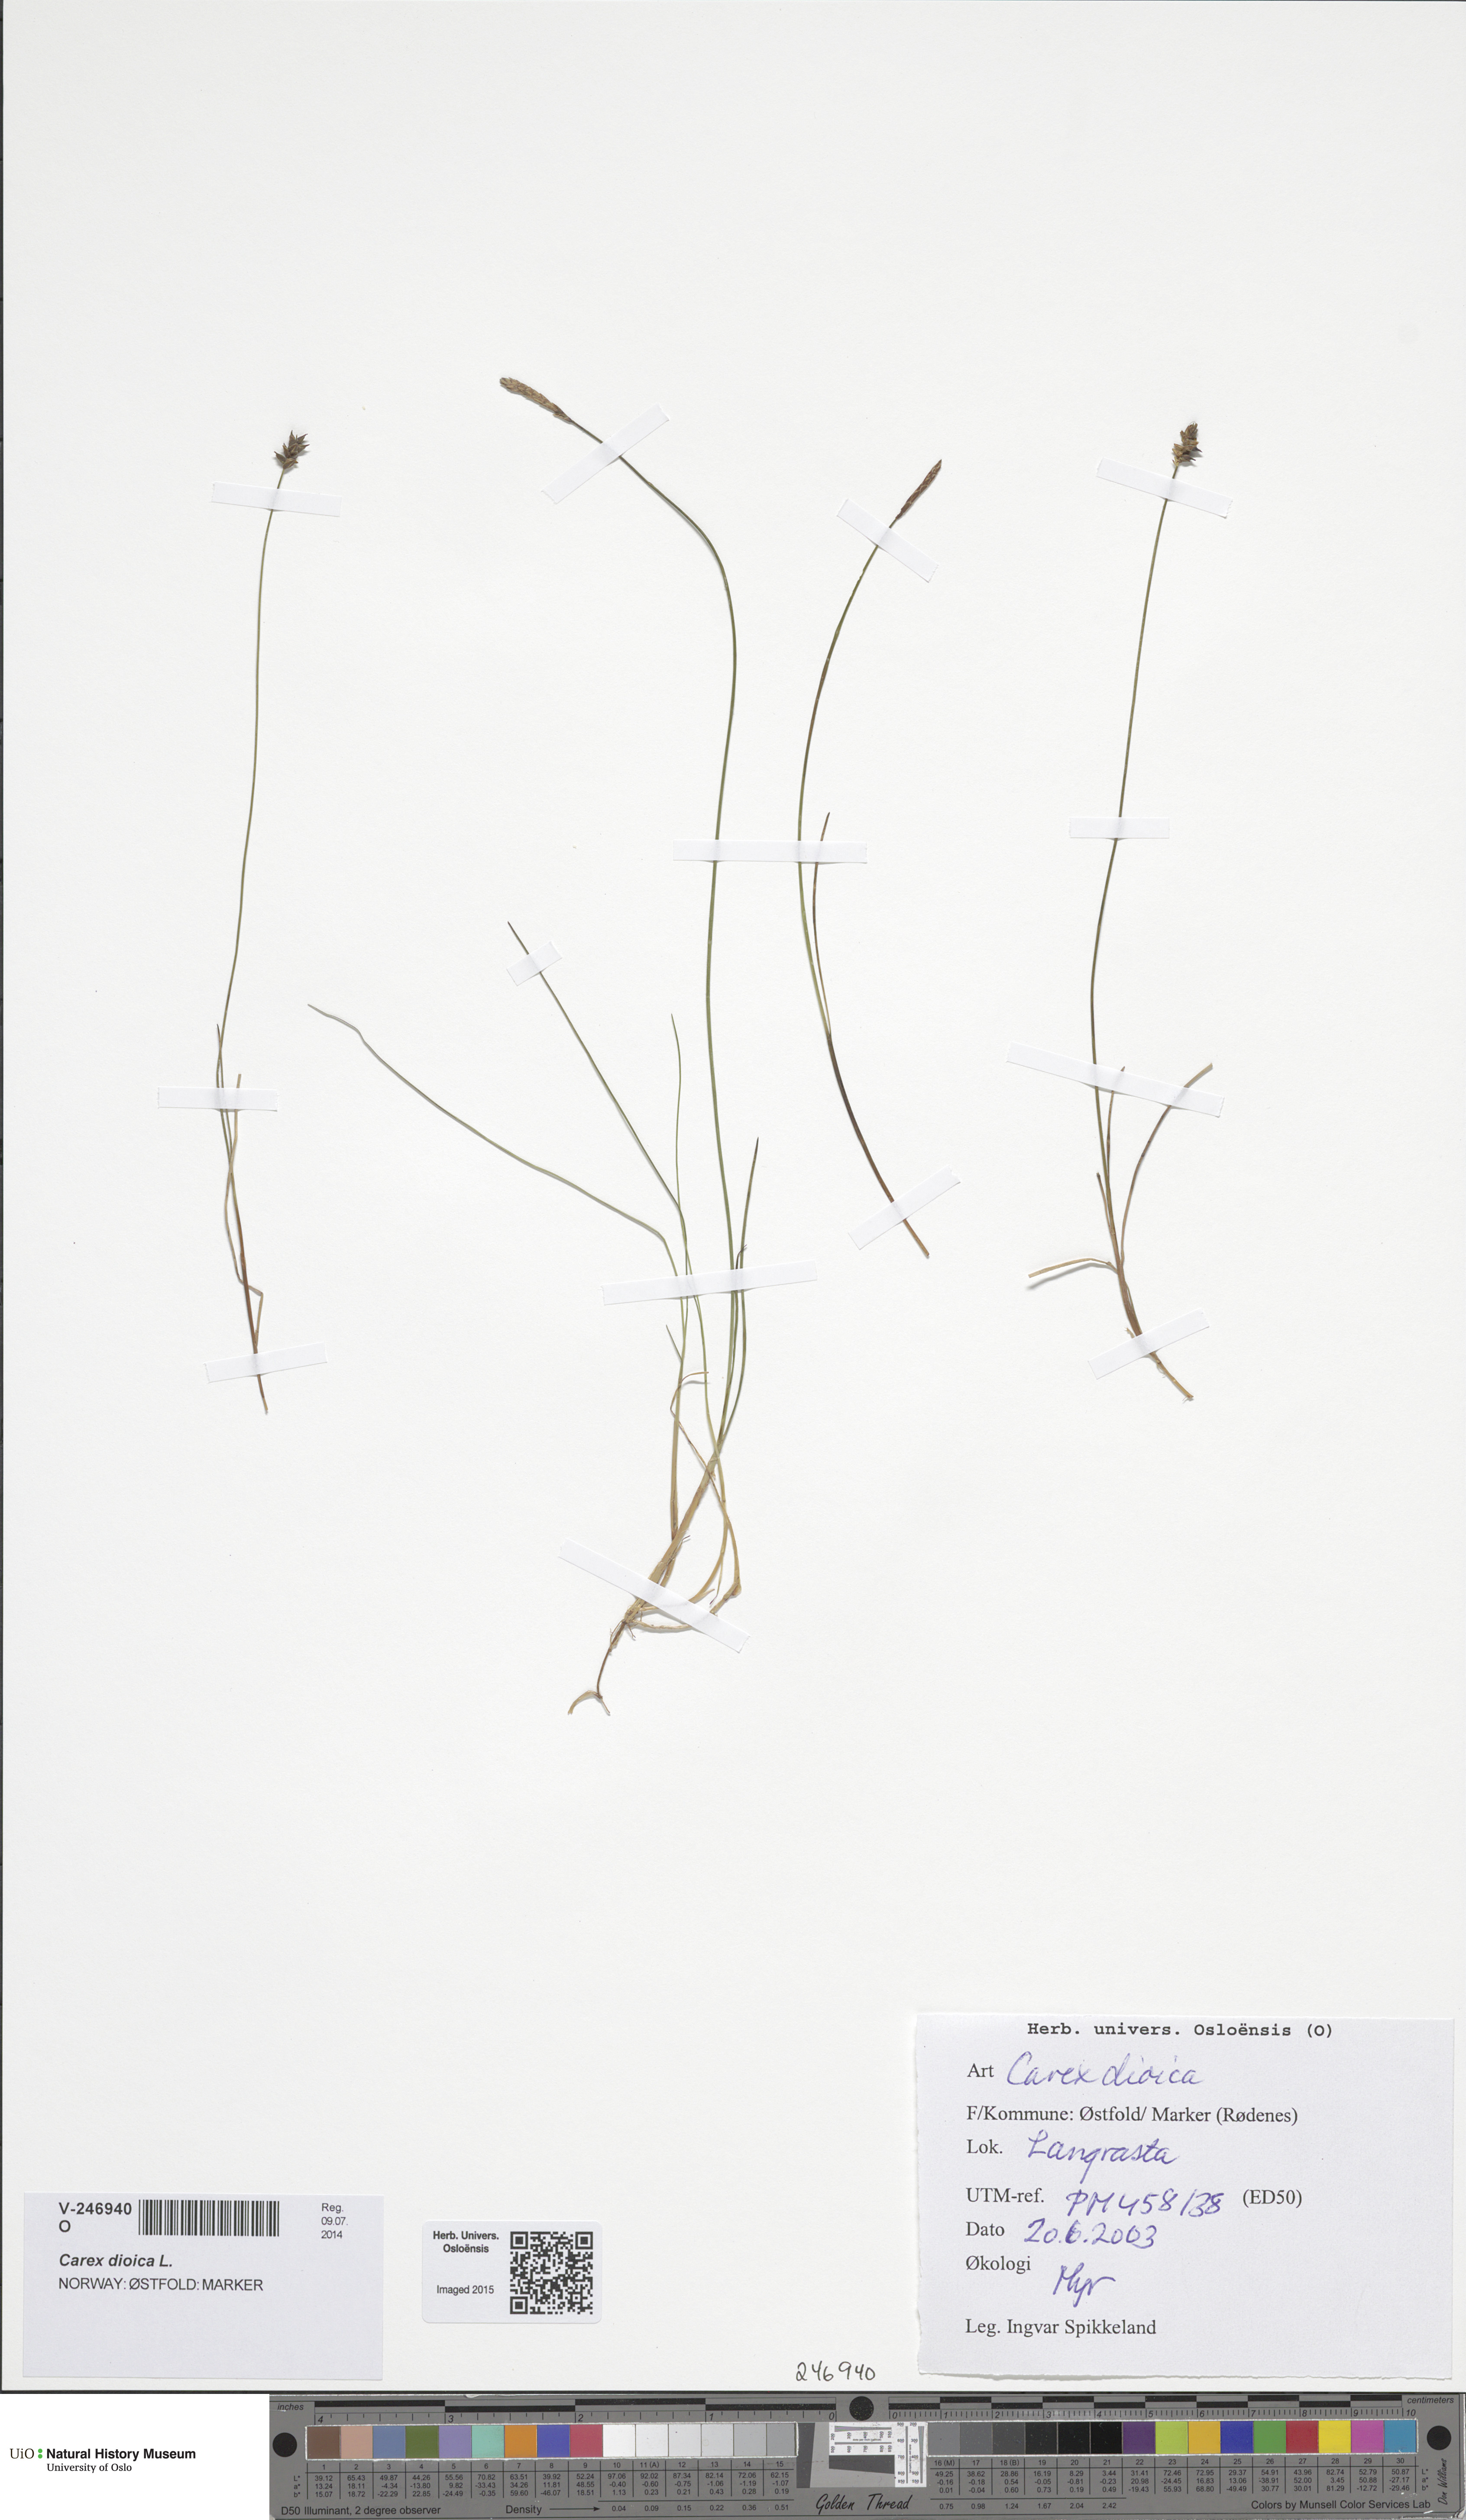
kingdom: Plantae
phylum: Tracheophyta
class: Liliopsida
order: Poales
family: Cyperaceae
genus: Carex
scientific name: Carex dioica
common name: Dioecious sedge
